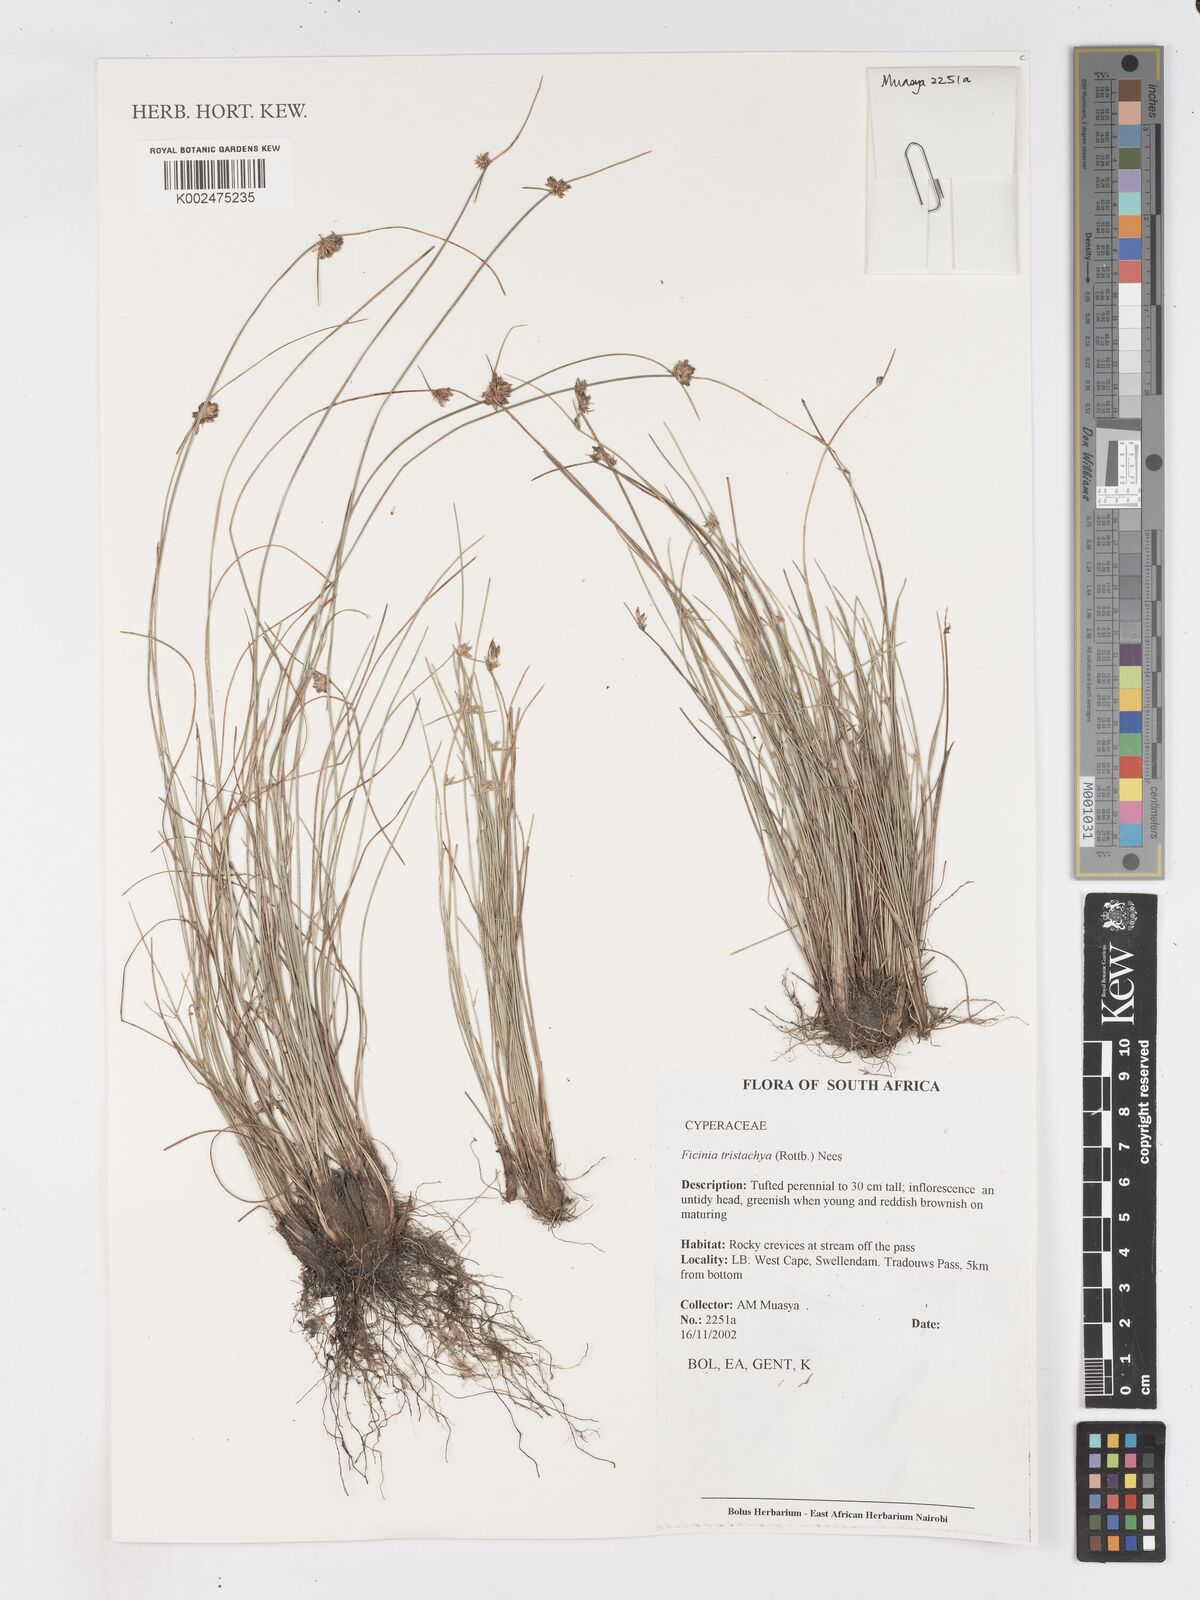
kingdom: Plantae
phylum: Tracheophyta
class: Liliopsida
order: Poales
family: Cyperaceae
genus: Ficinia
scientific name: Ficinia tristachya
